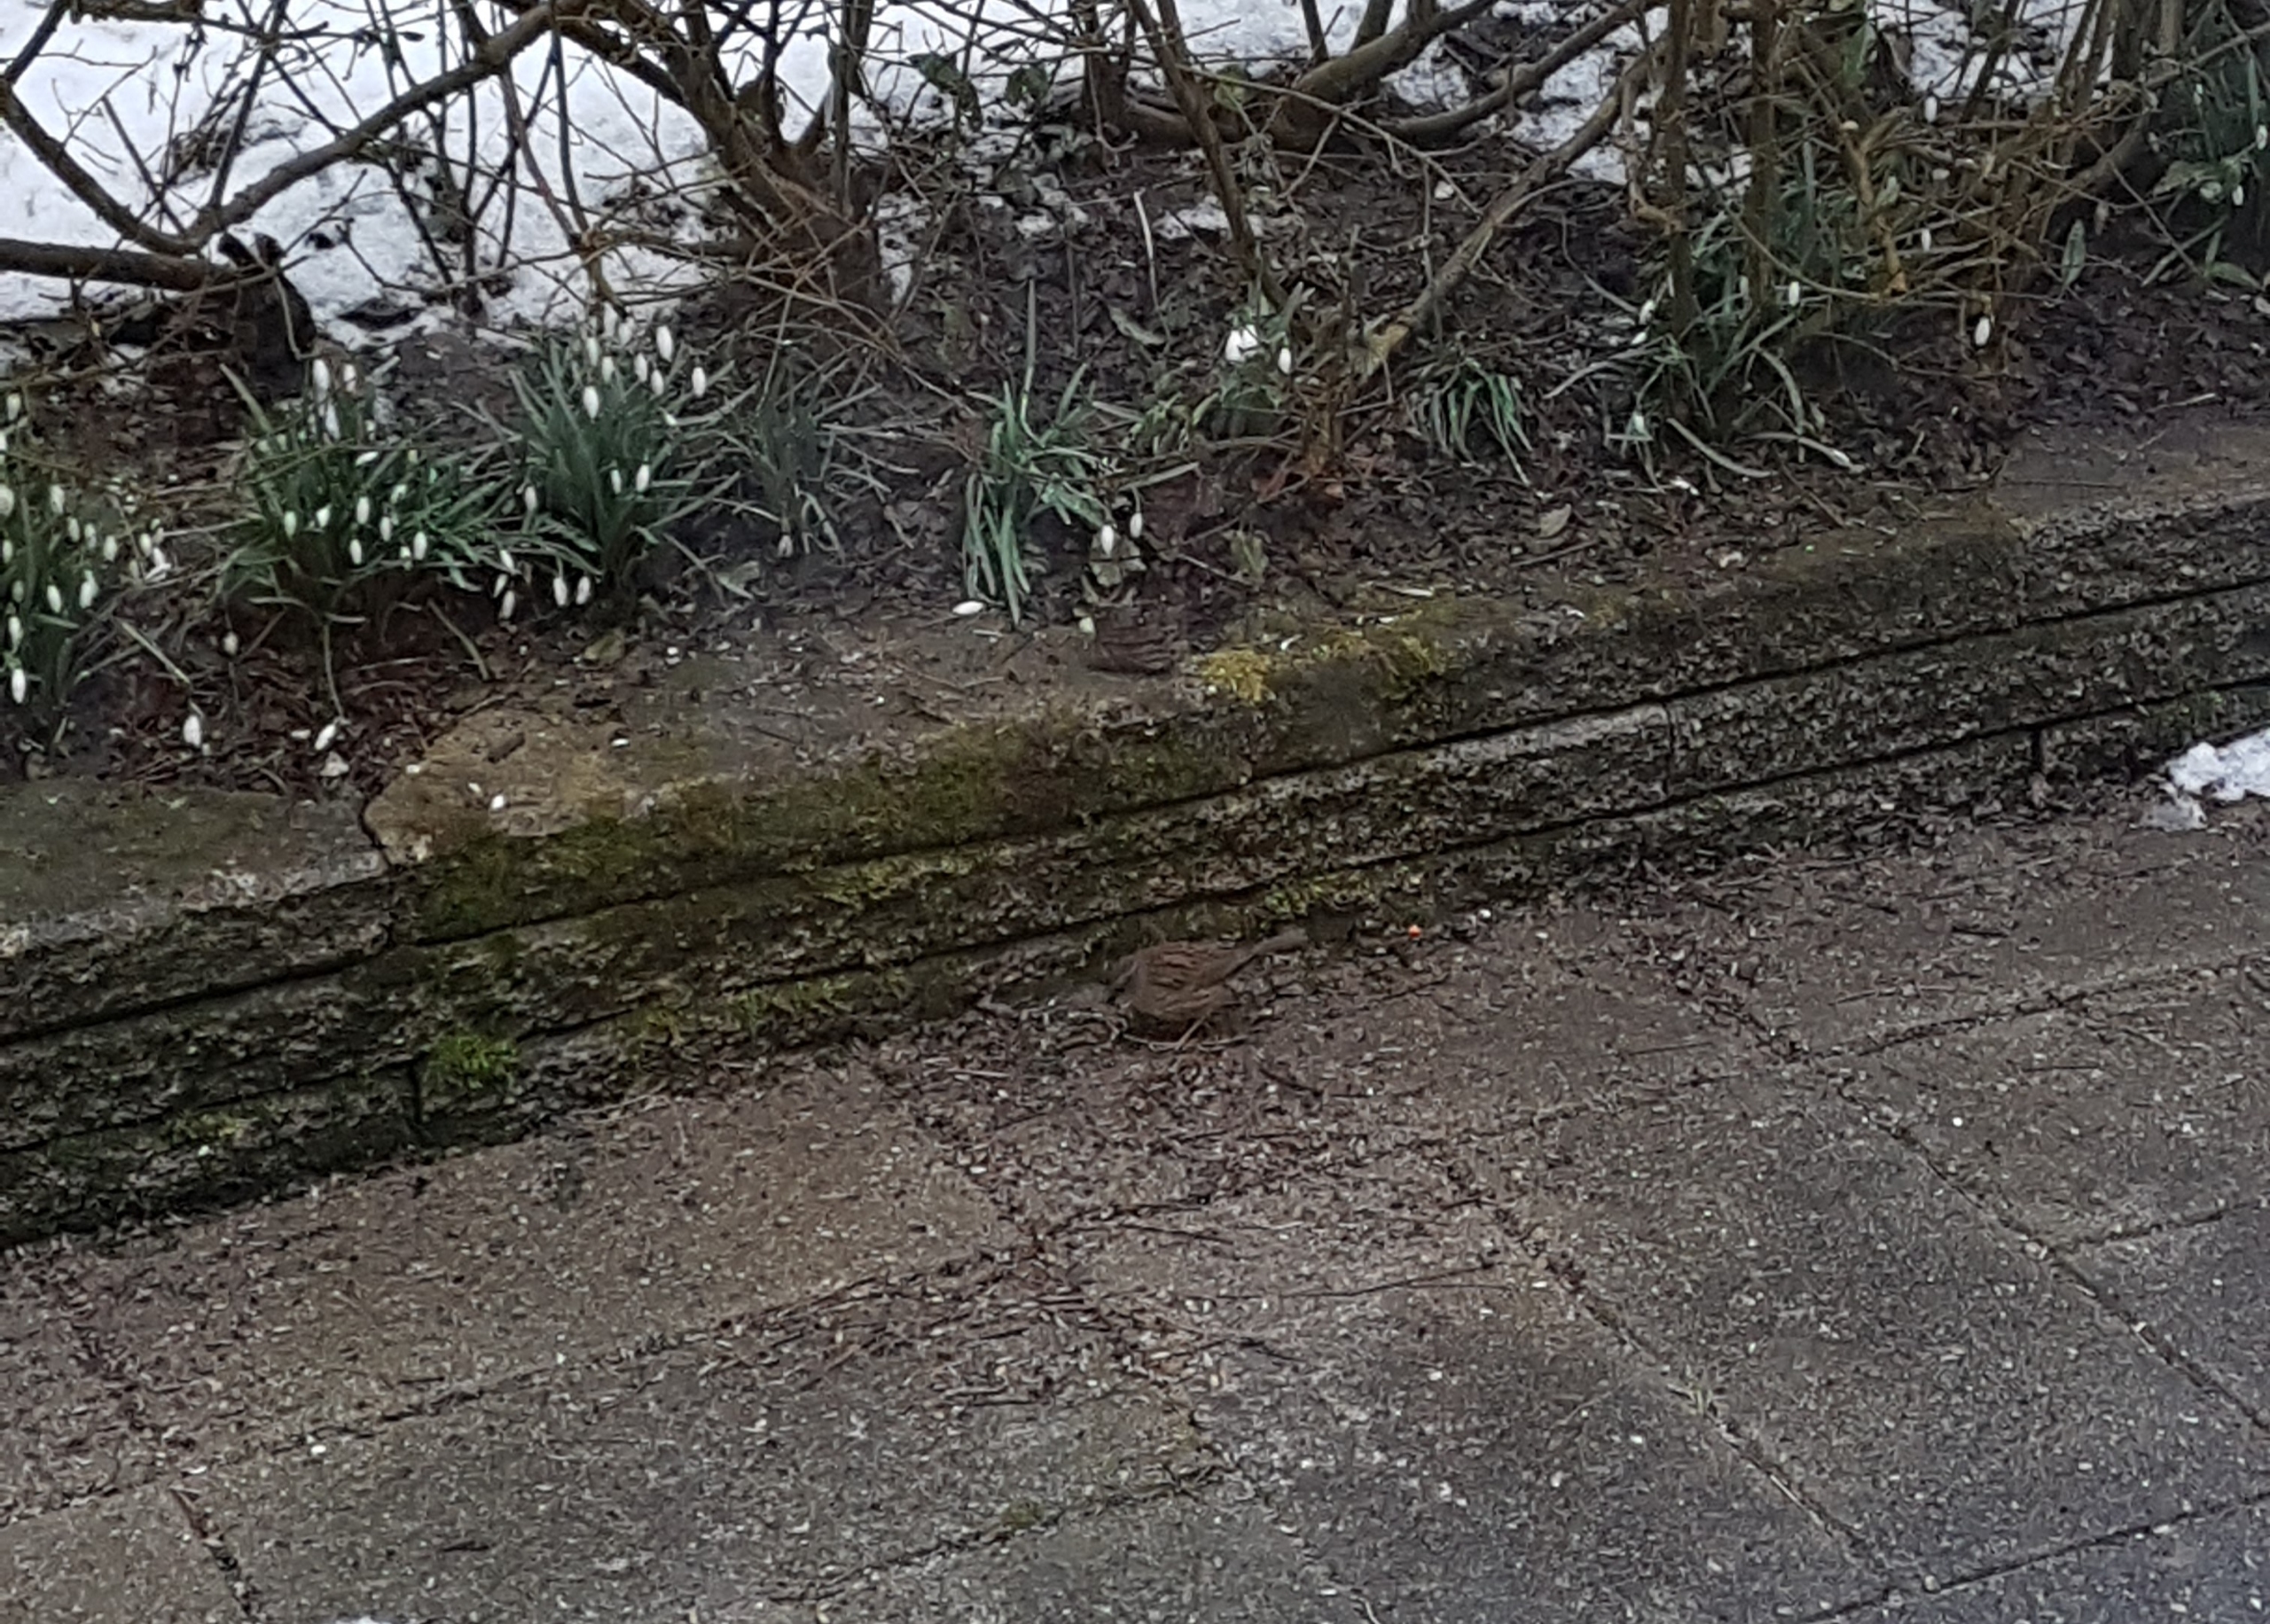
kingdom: Animalia
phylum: Chordata
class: Aves
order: Passeriformes
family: Prunellidae
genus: Prunella
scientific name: Prunella modularis
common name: Jernspurv
